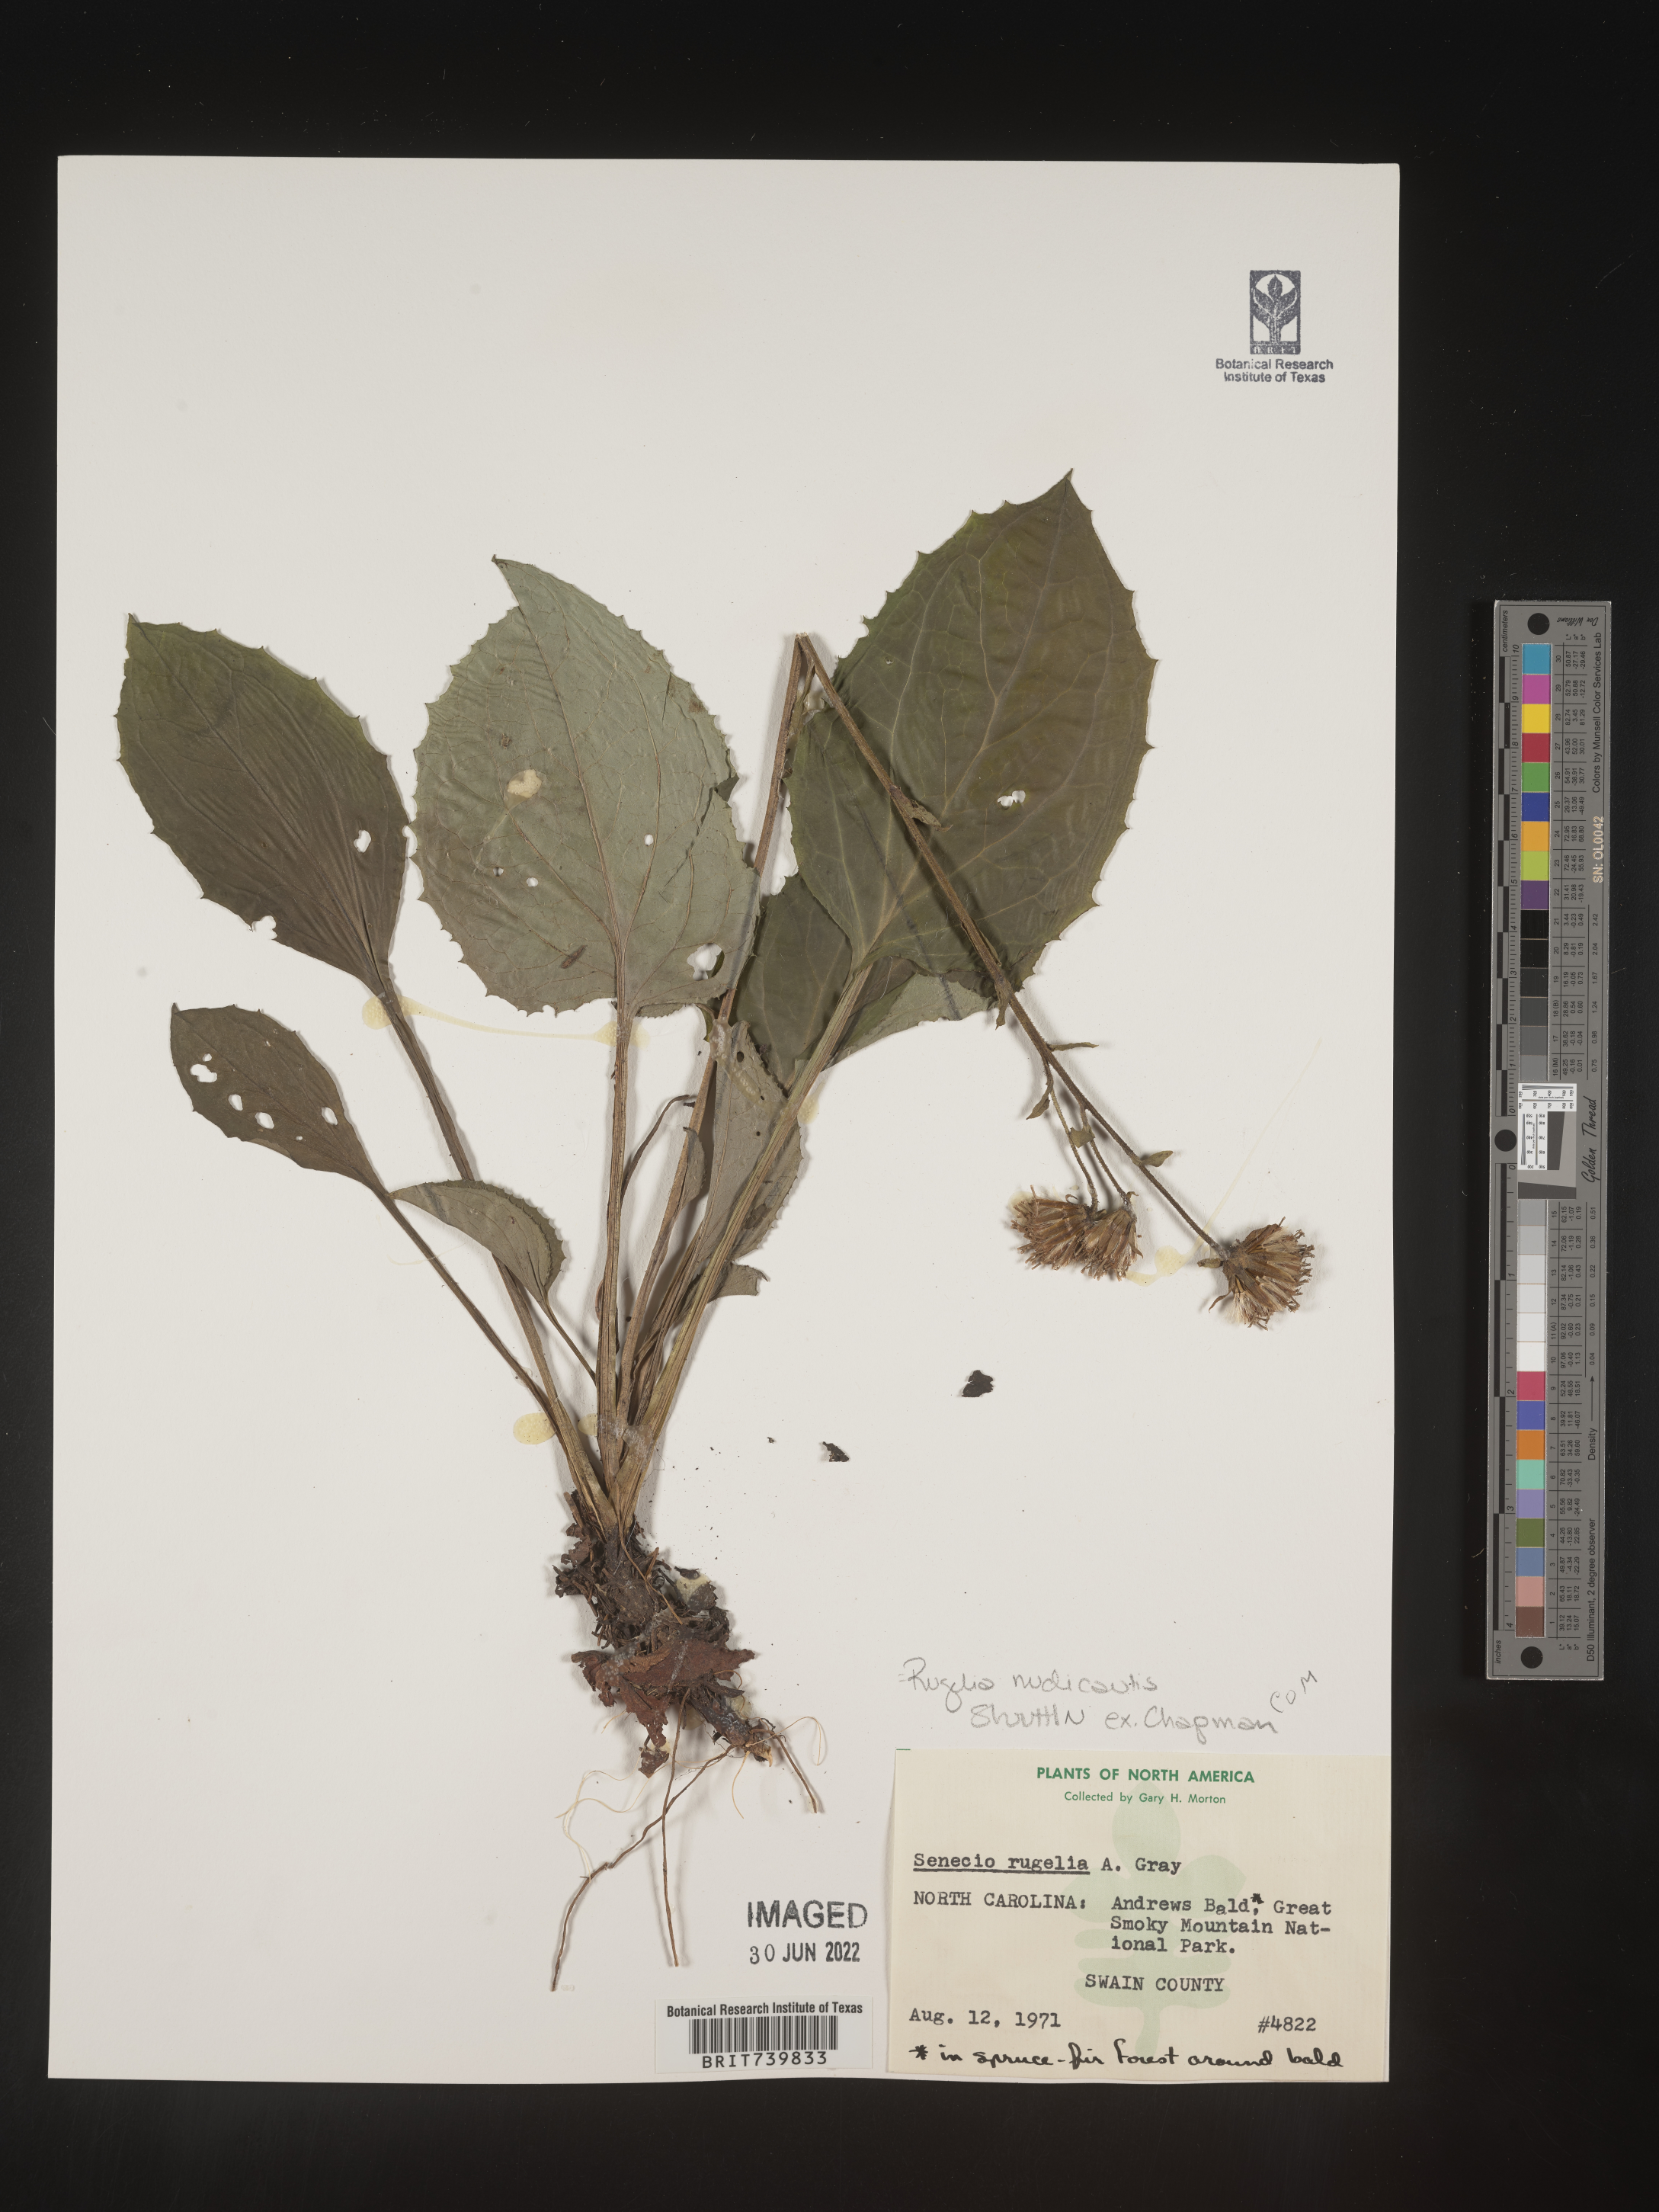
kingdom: Plantae
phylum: Tracheophyta
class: Magnoliopsida
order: Asterales
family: Asteraceae
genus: Rugelia
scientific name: Rugelia nudicaulis
